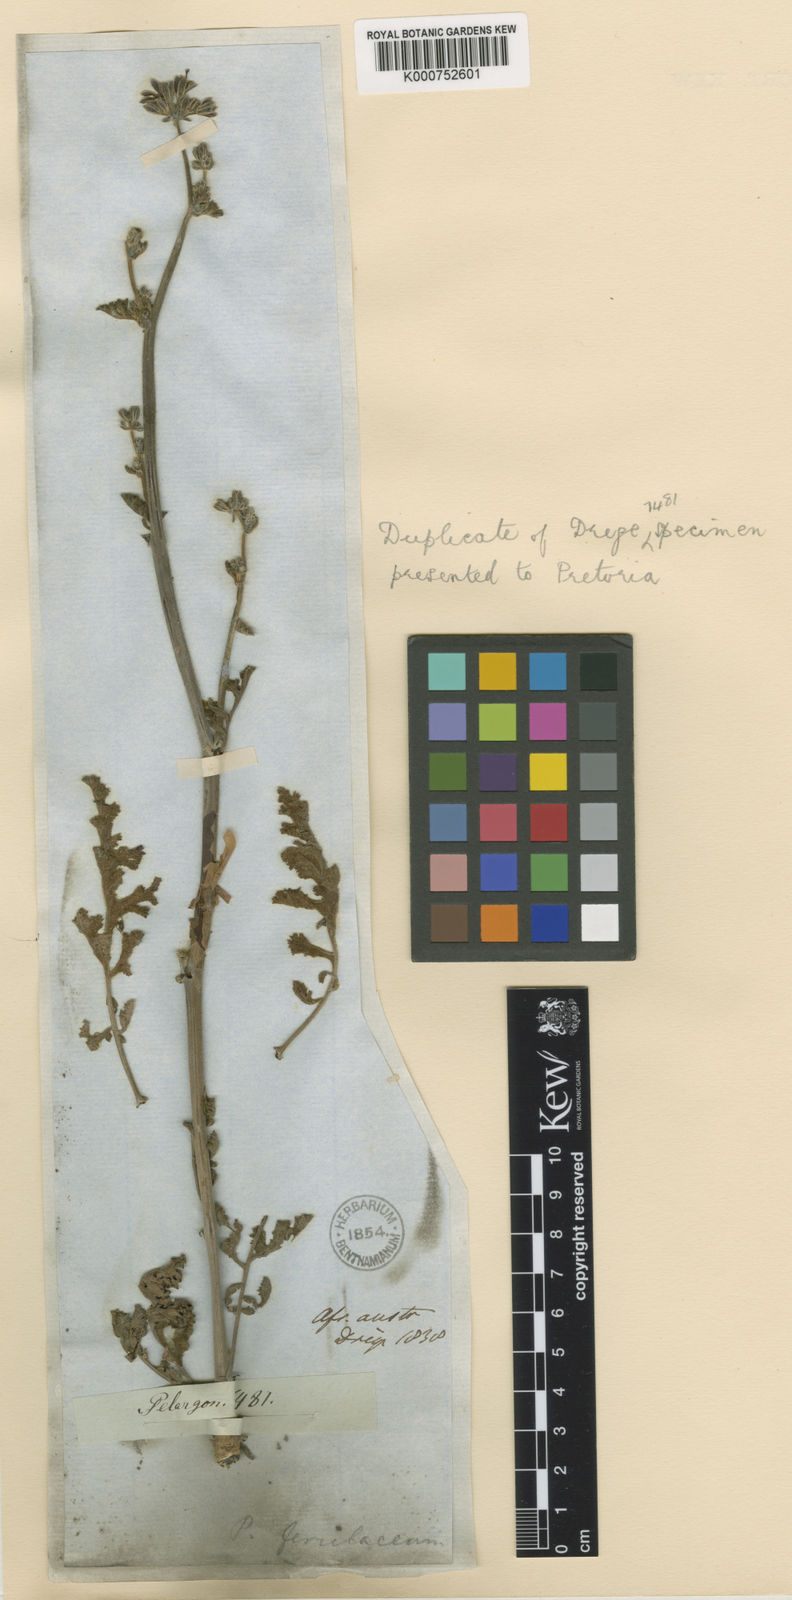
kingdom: Plantae
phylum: Tracheophyta
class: Magnoliopsida
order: Geraniales
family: Geraniaceae
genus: Pelargonium
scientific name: Pelargonium
